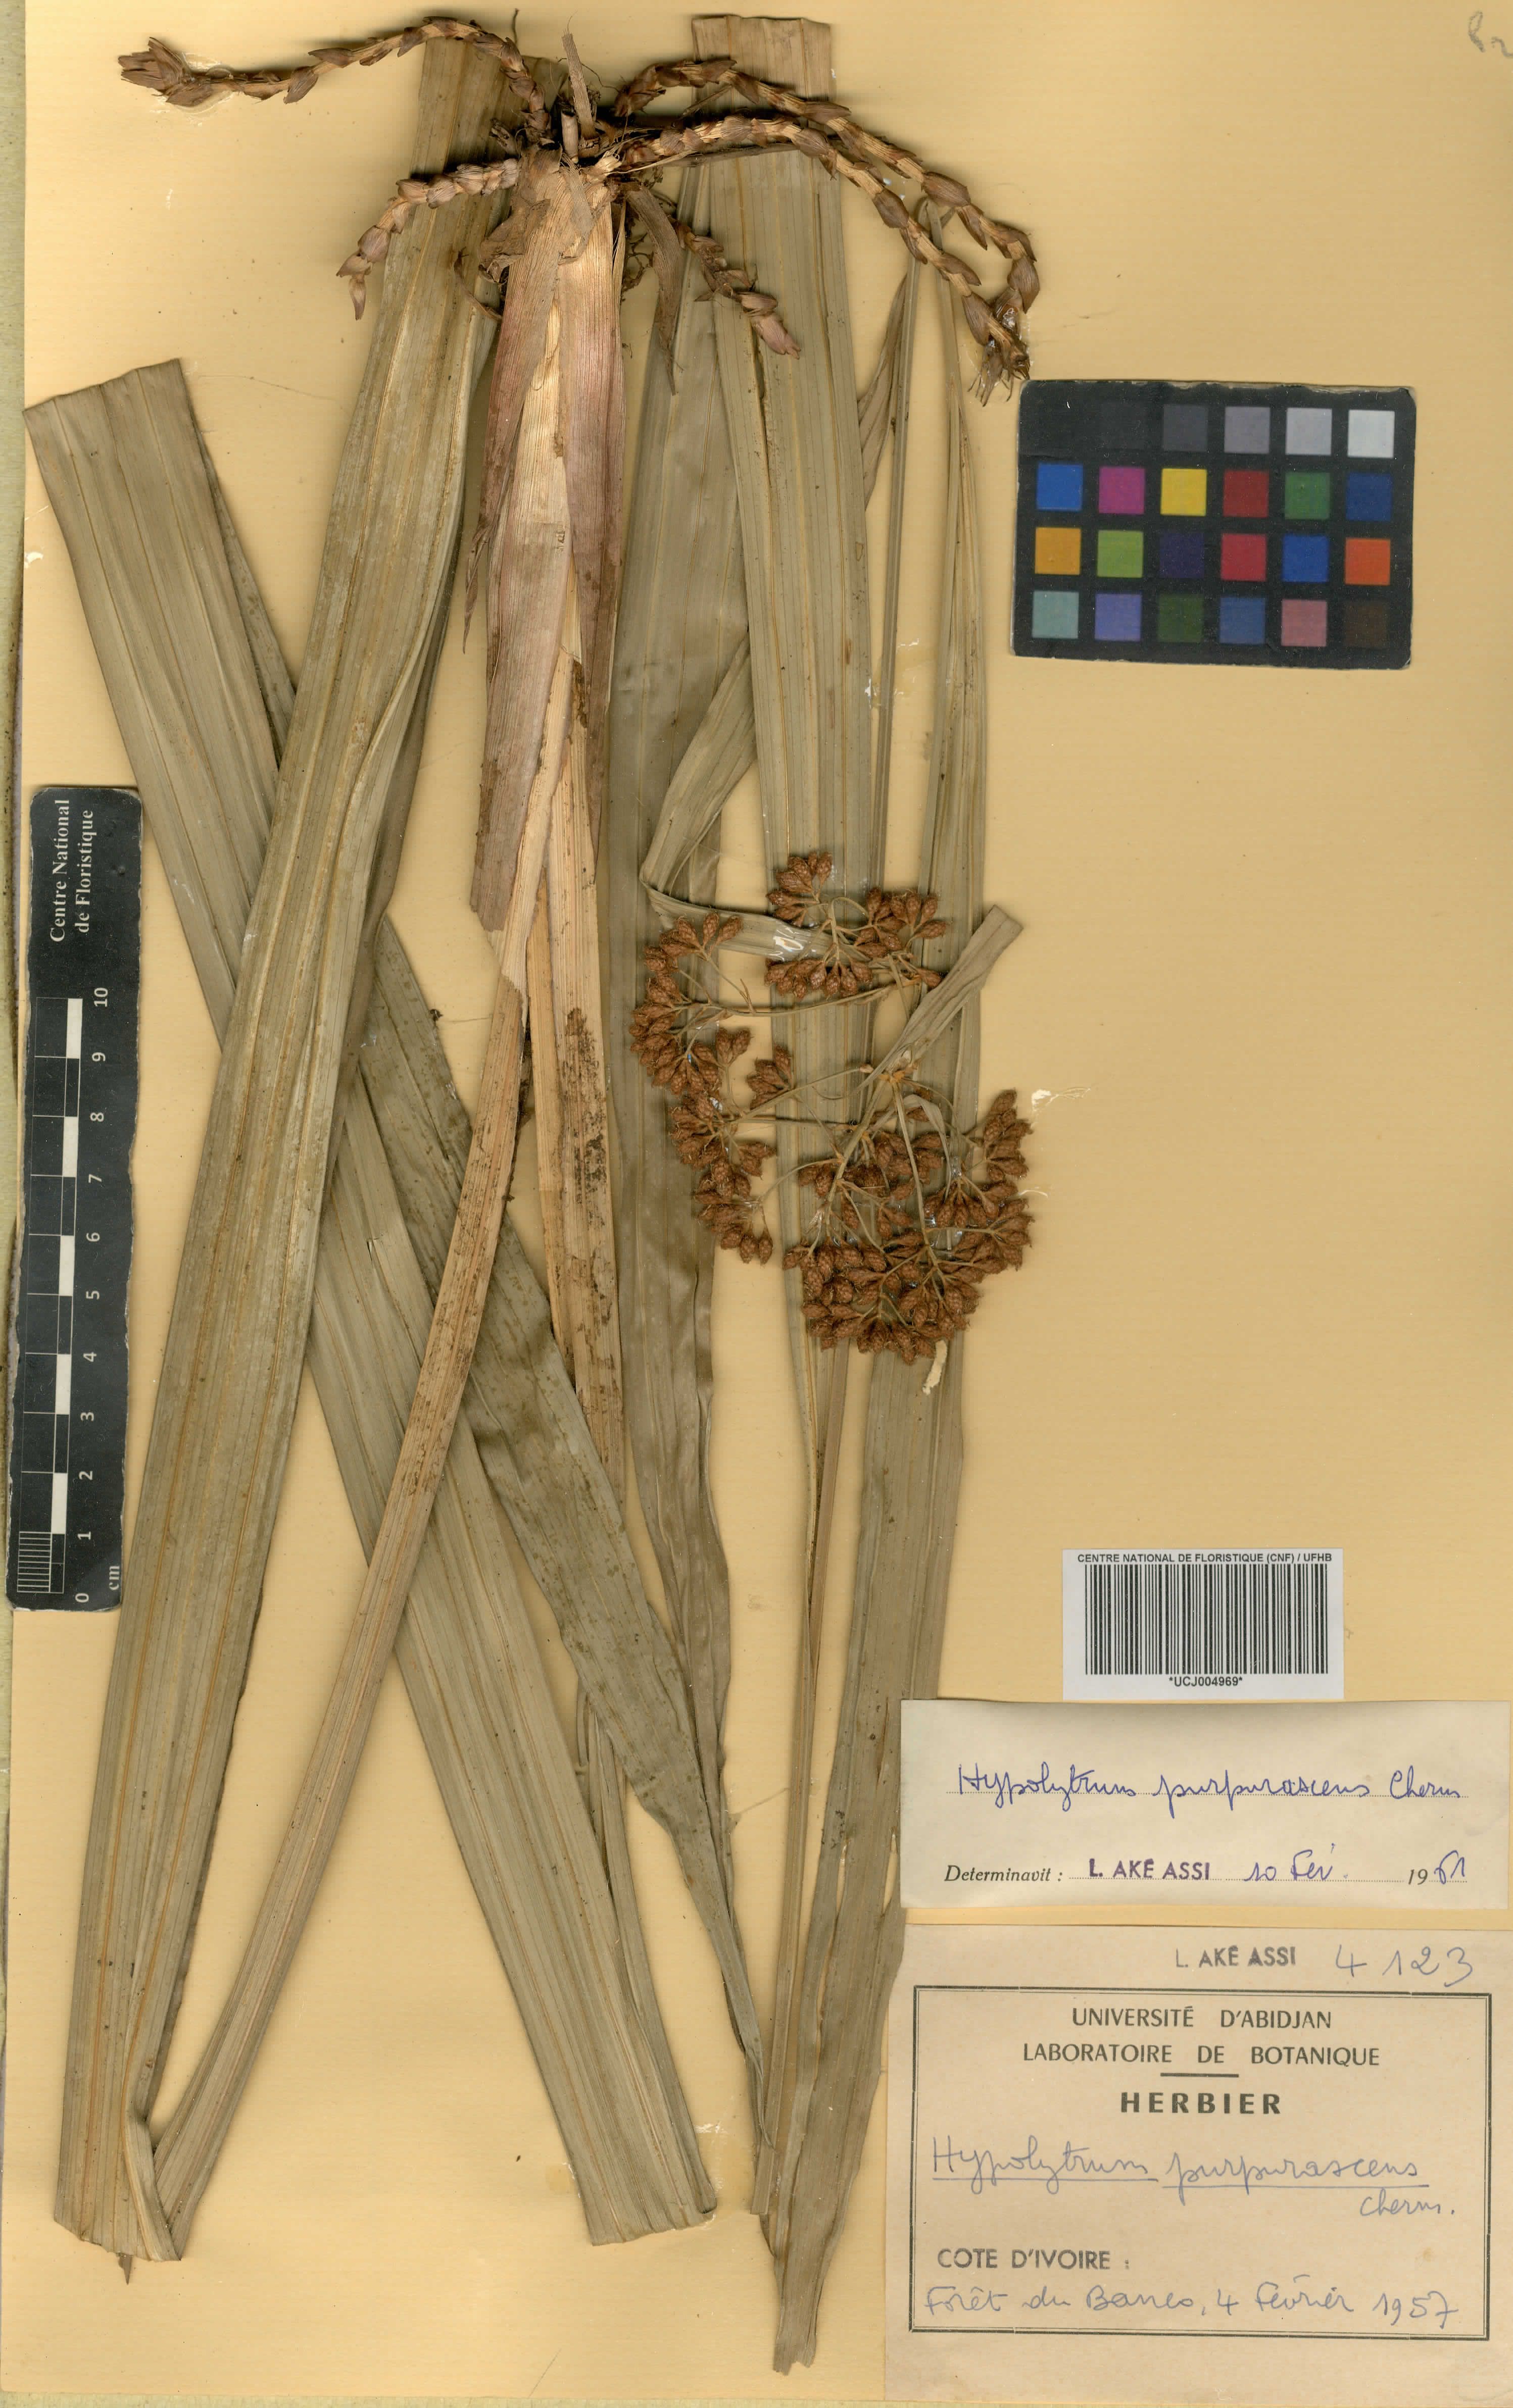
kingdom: Plantae
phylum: Tracheophyta
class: Liliopsida
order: Poales
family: Cyperaceae
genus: Hypolytrum
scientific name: Hypolytrum purpurascens
